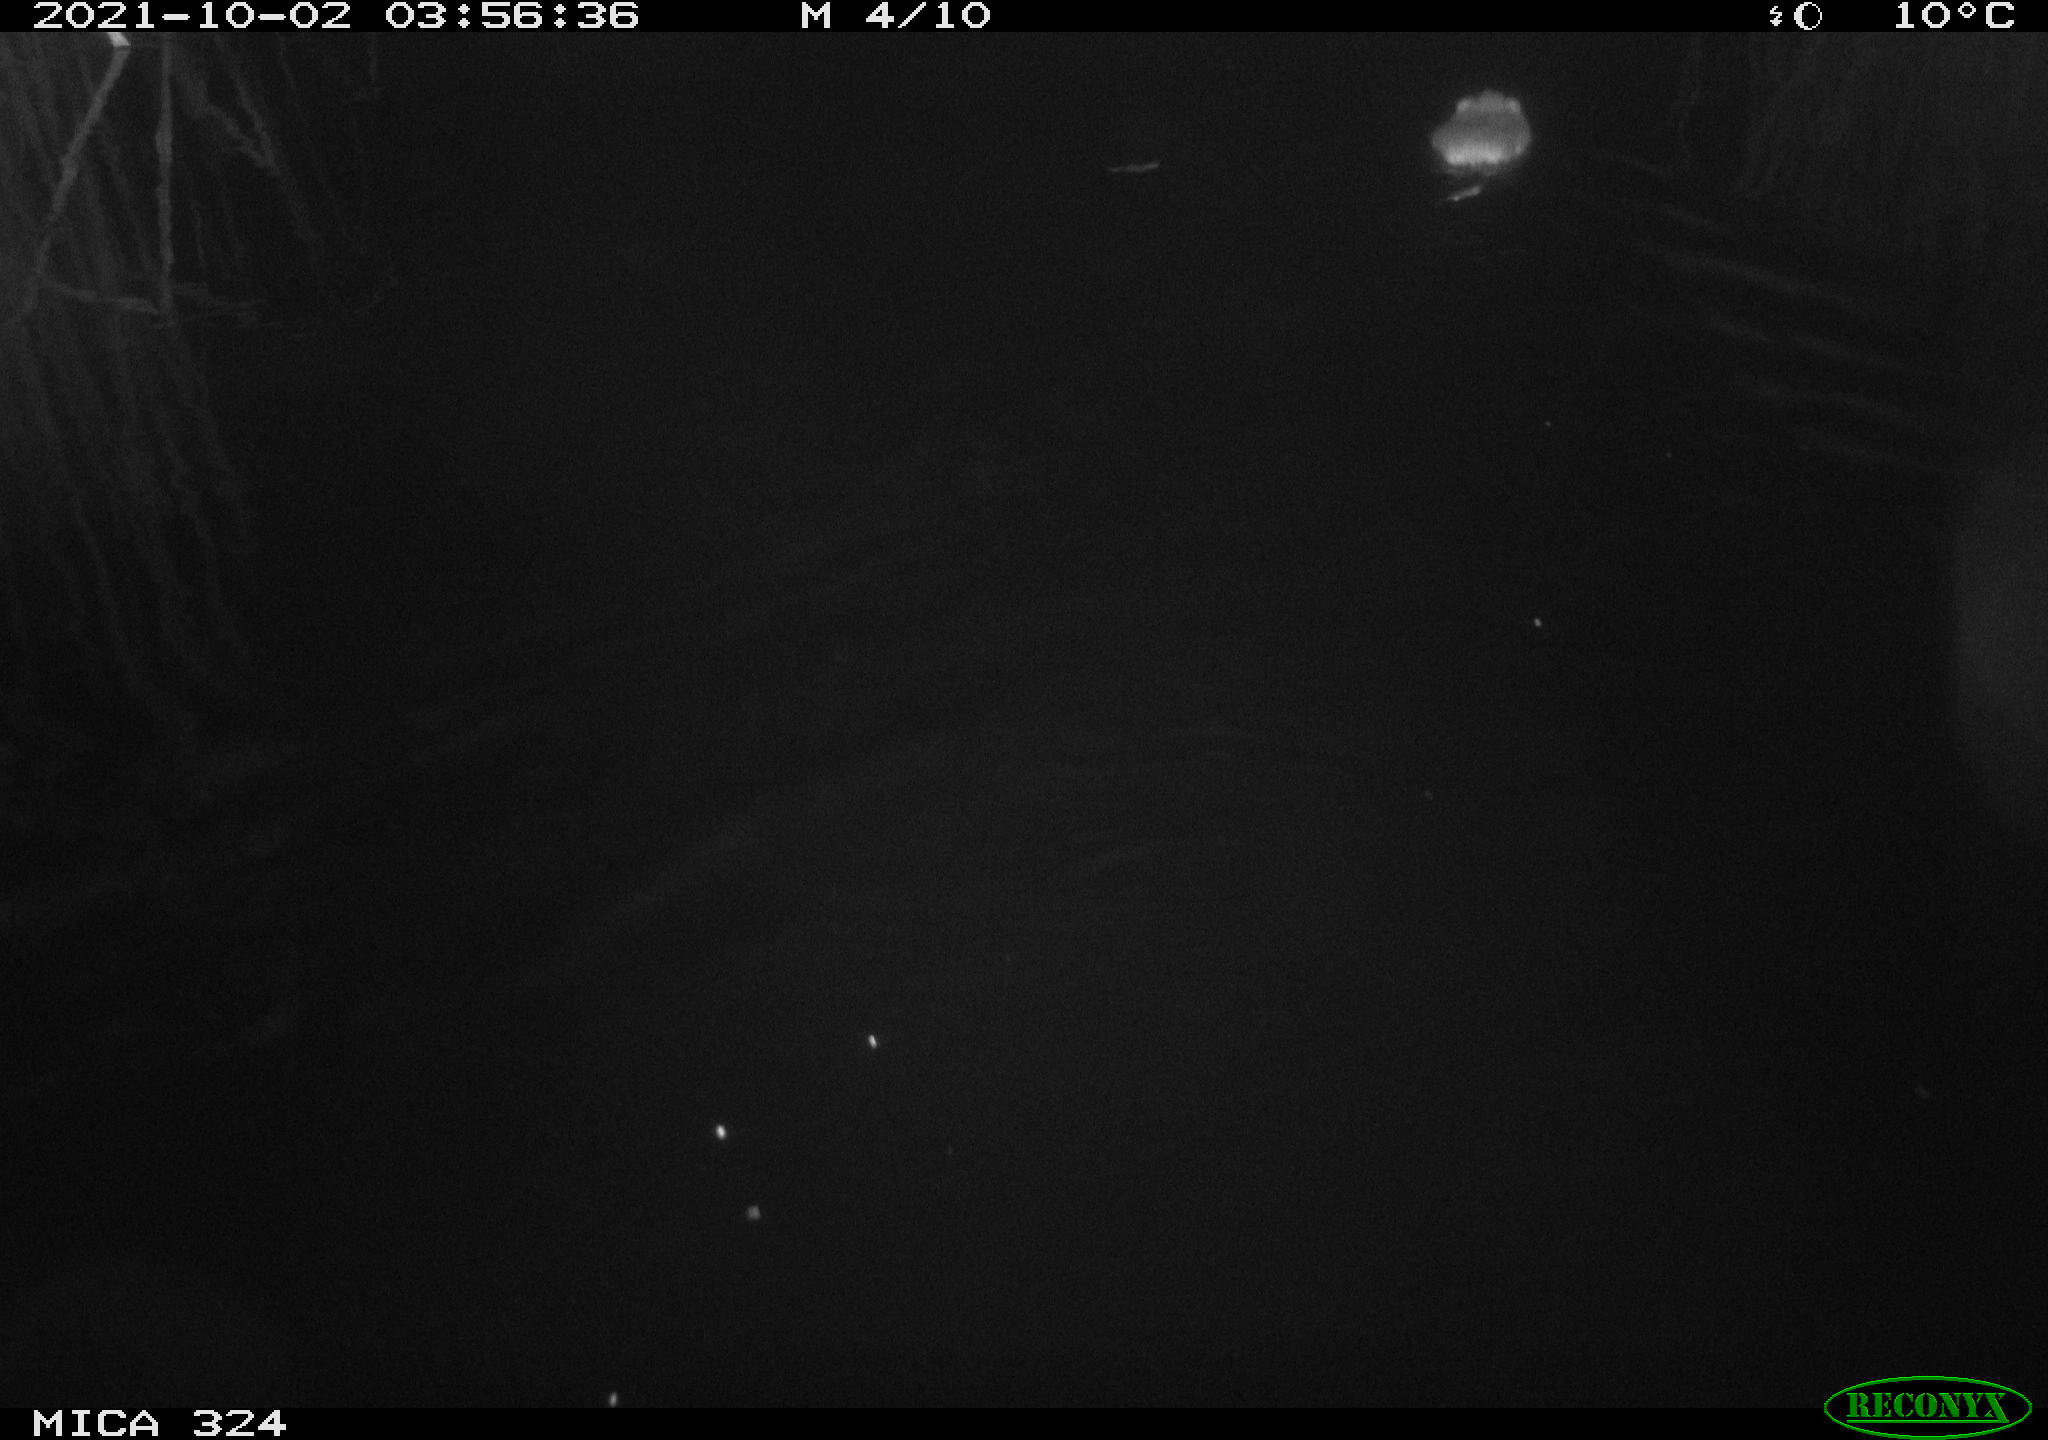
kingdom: Animalia
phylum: Chordata
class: Mammalia
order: Rodentia
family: Cricetidae
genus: Ondatra
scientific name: Ondatra zibethicus
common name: Muskrat
